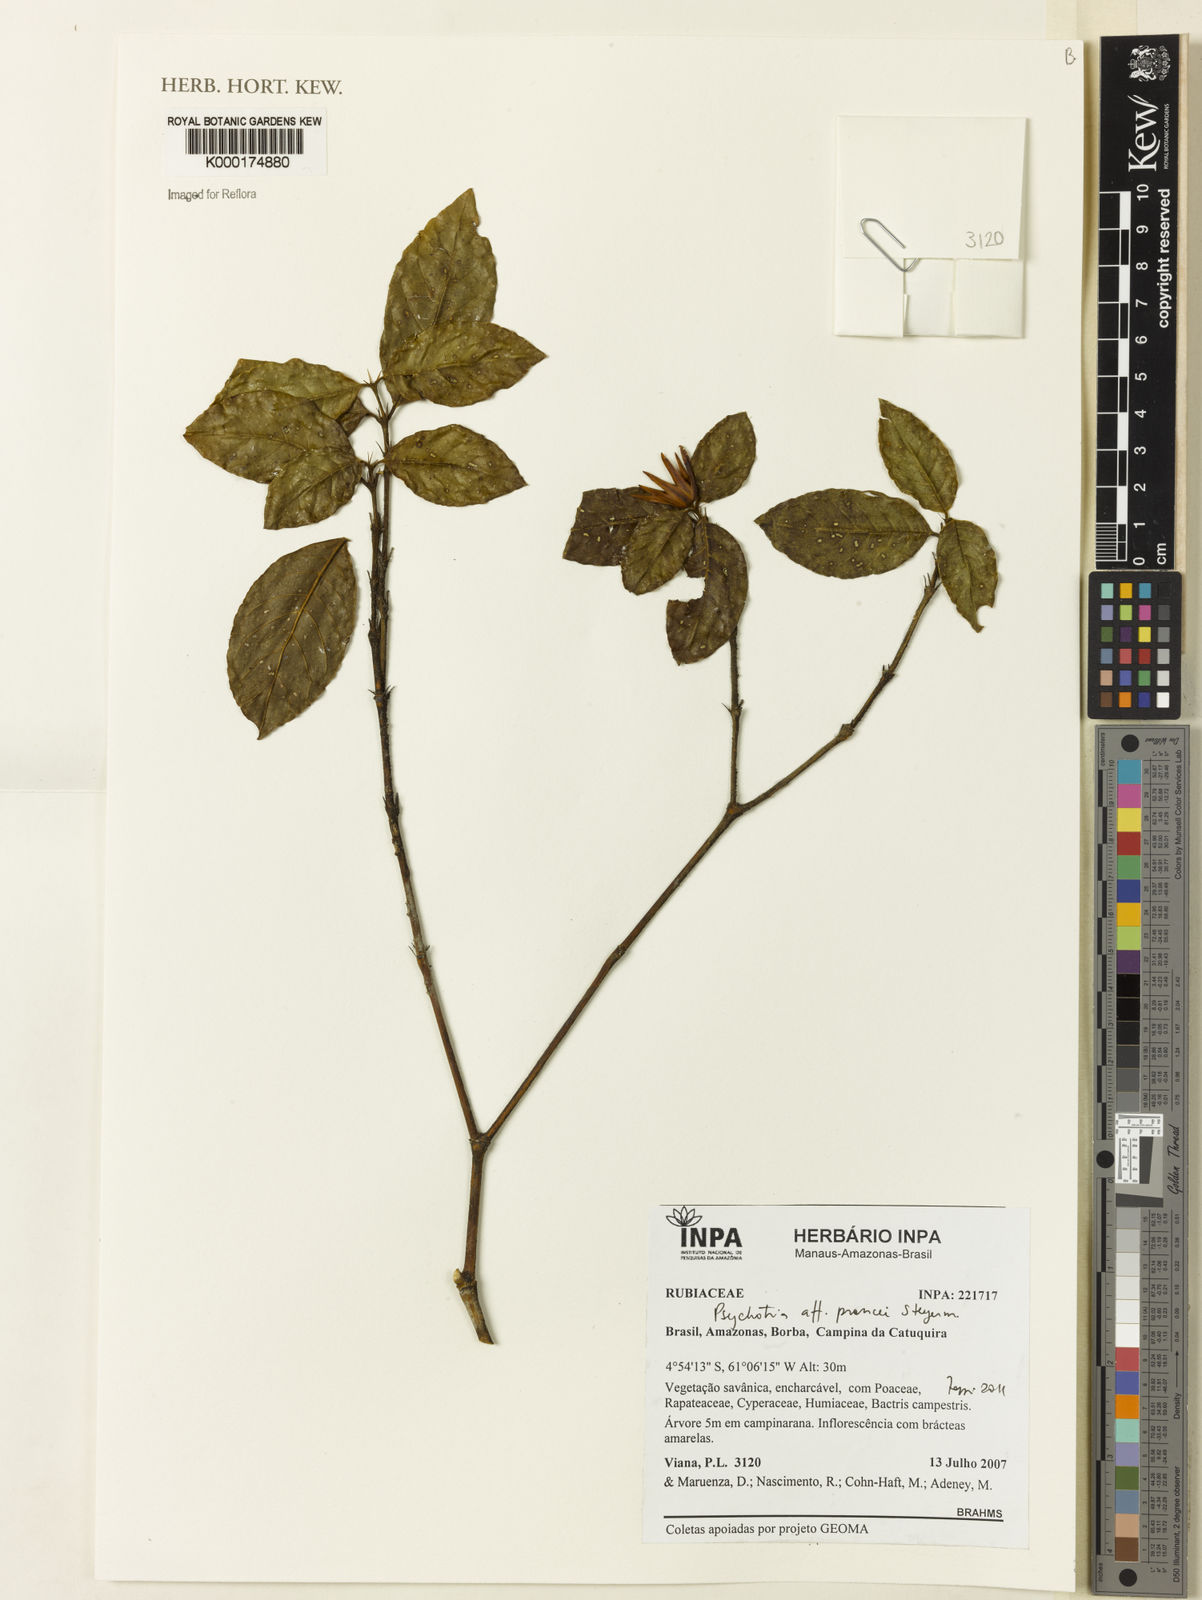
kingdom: Plantae
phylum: Tracheophyta
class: Magnoliopsida
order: Gentianales
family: Rubiaceae
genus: Palicourea
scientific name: Palicourea prancei
